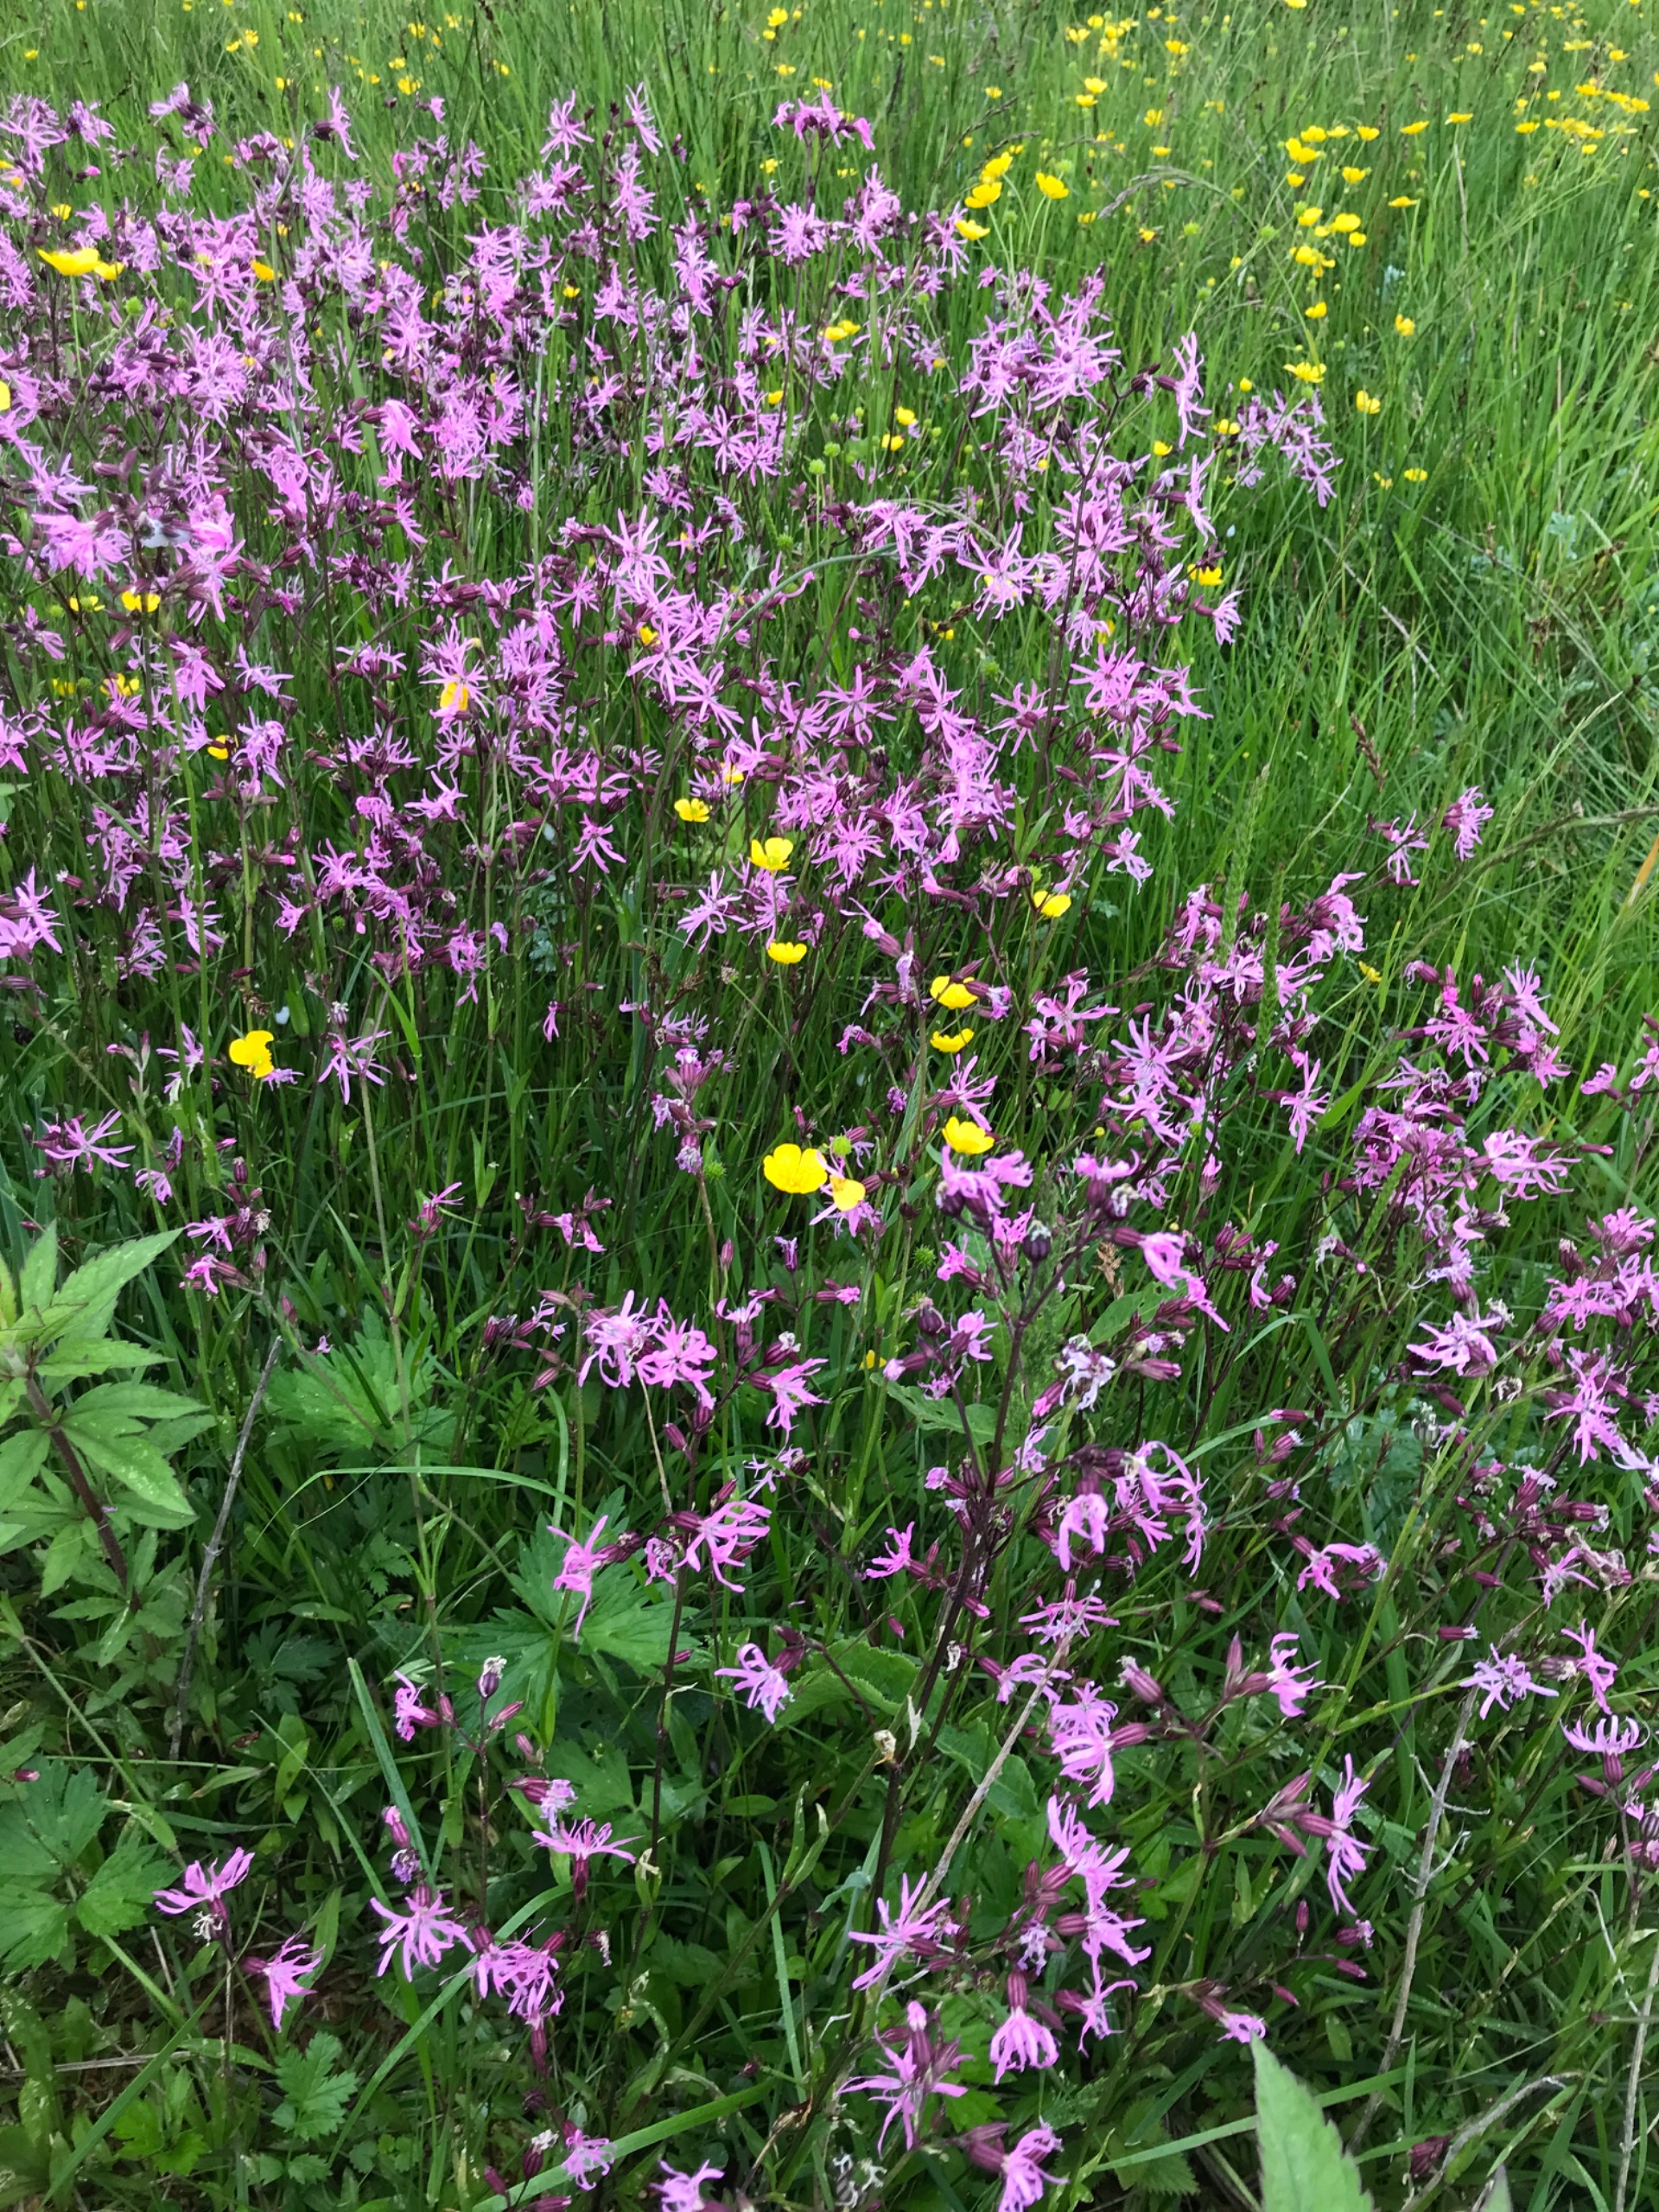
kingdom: Plantae
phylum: Tracheophyta
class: Magnoliopsida
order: Caryophyllales
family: Caryophyllaceae
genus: Silene
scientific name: Silene flos-cuculi
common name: Trævlekrone
